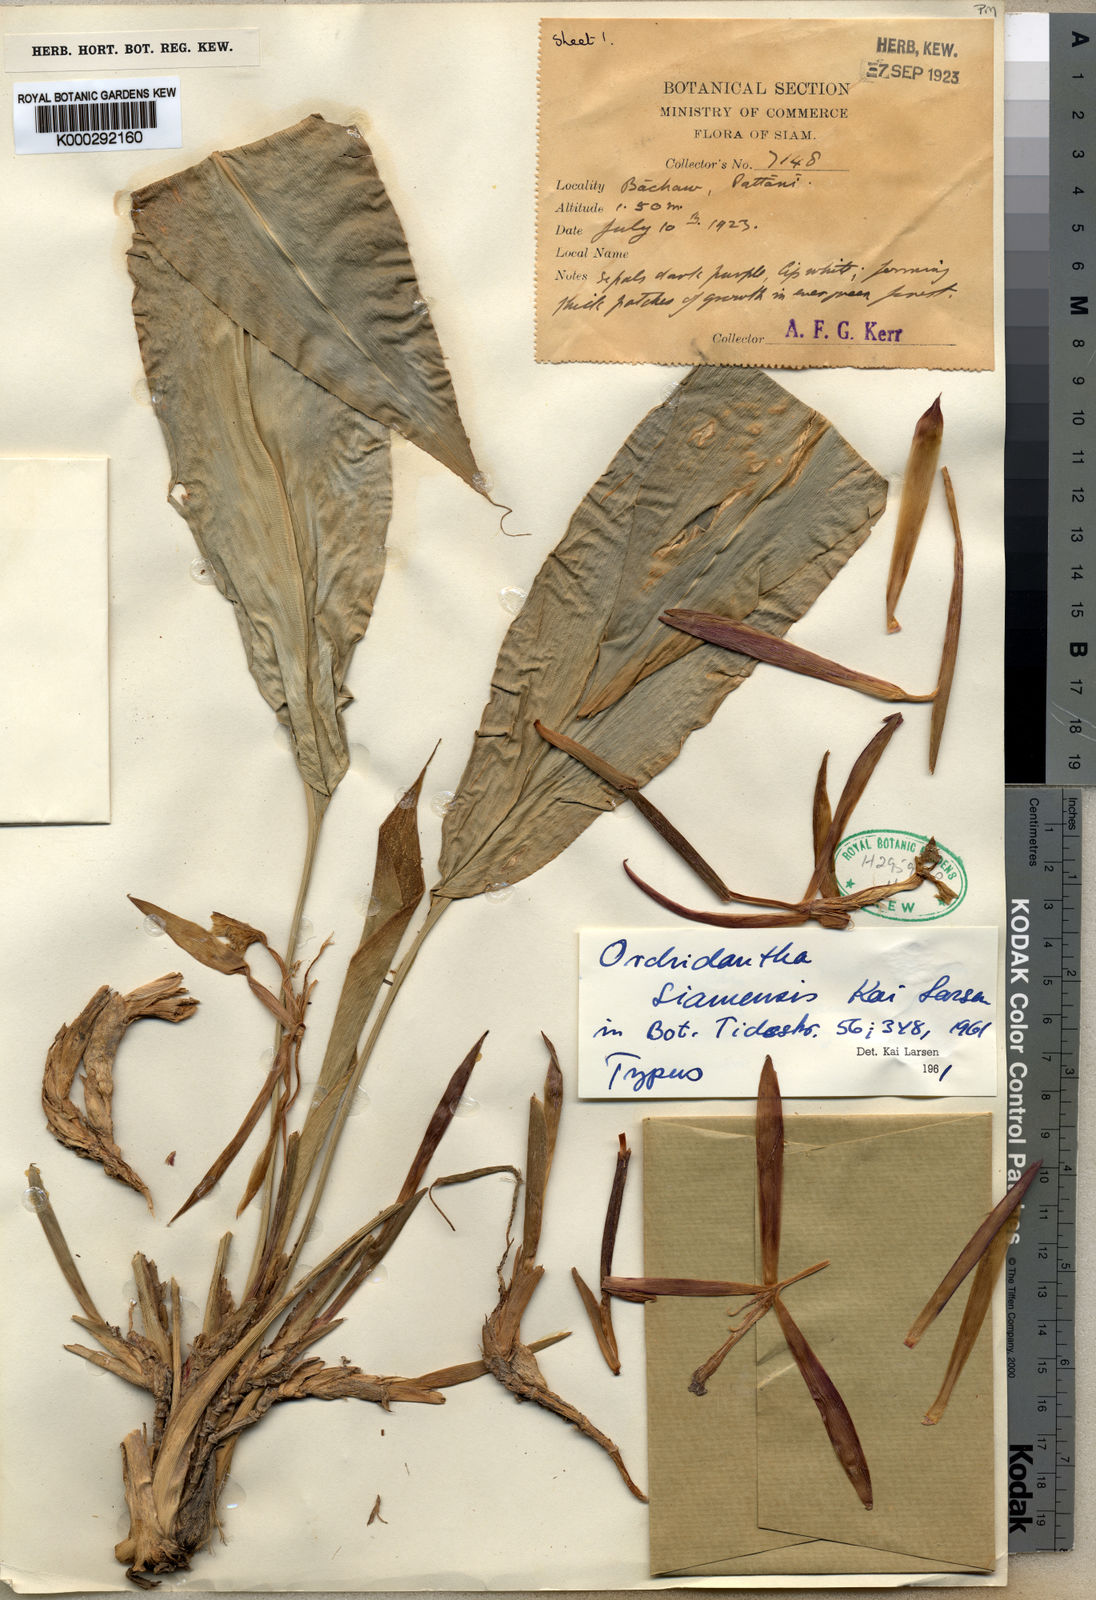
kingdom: Plantae
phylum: Tracheophyta
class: Liliopsida
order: Zingiberales
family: Lowiaceae
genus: Orchidantha
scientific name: Orchidantha siamensis
